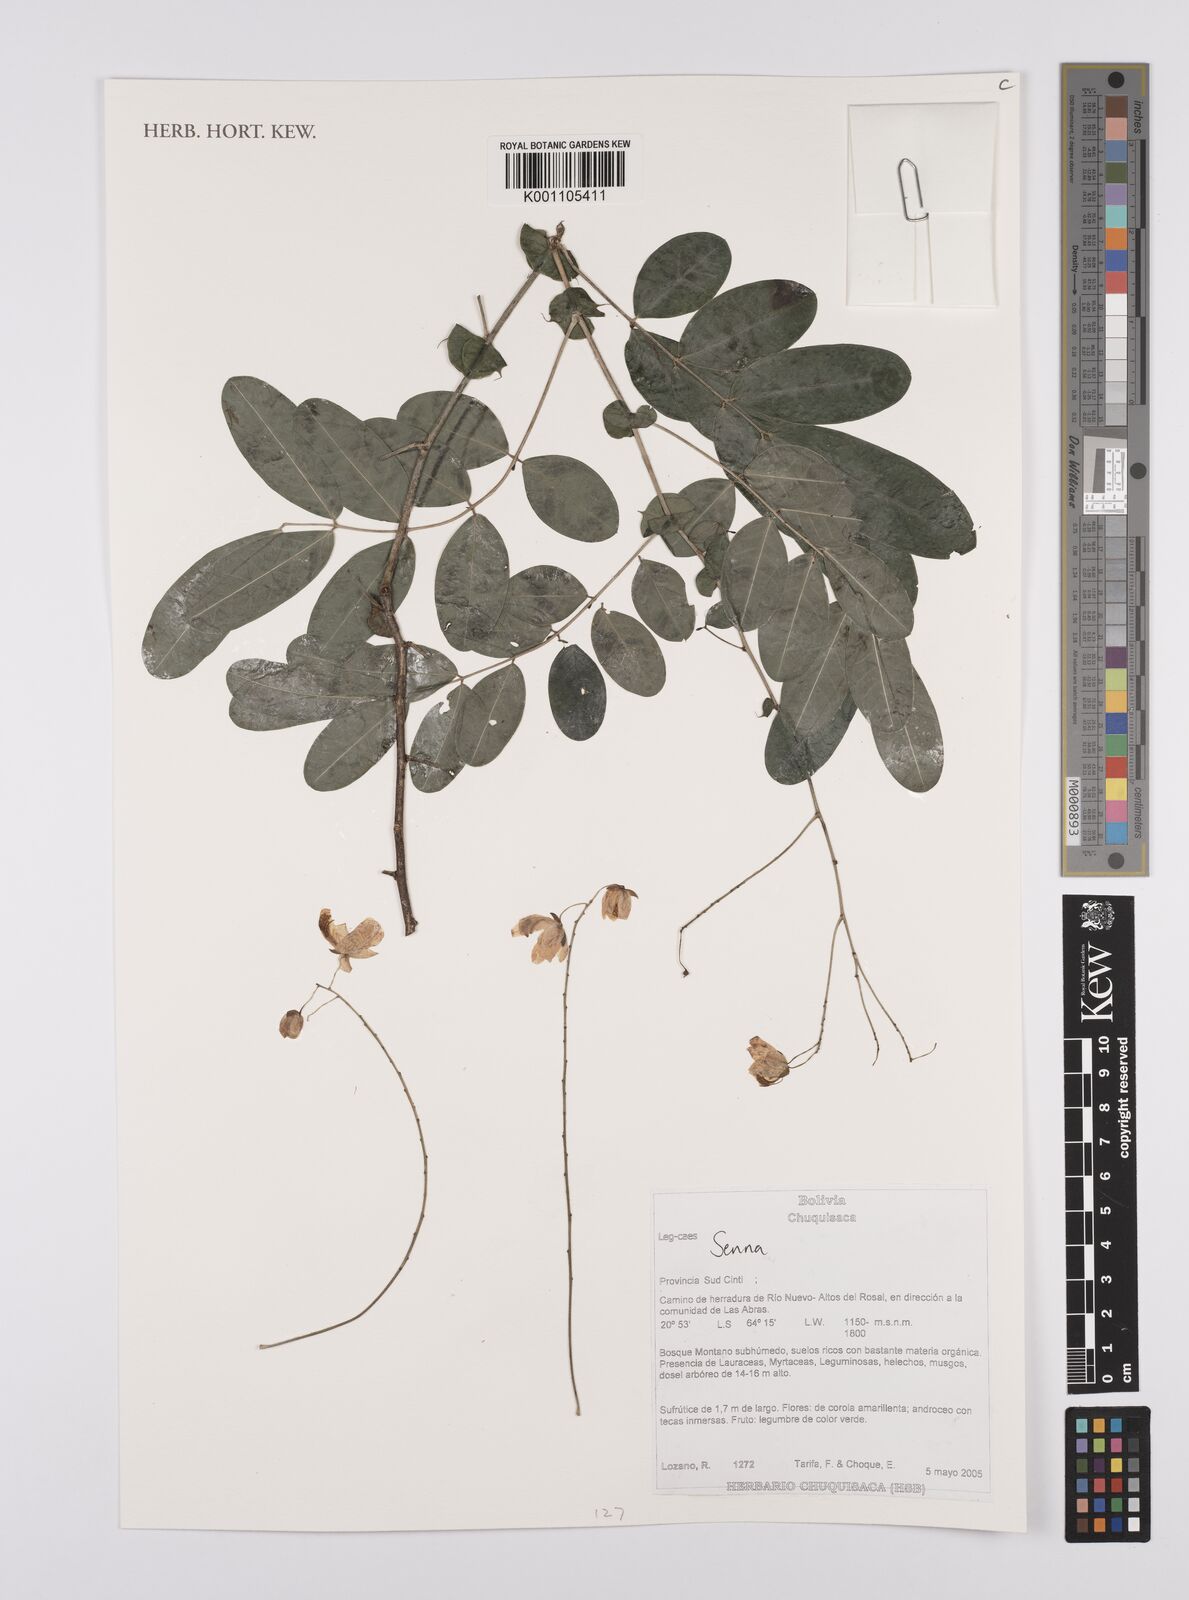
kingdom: Plantae
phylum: Tracheophyta
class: Magnoliopsida
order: Fabales
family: Fabaceae
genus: Senna
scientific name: Senna
